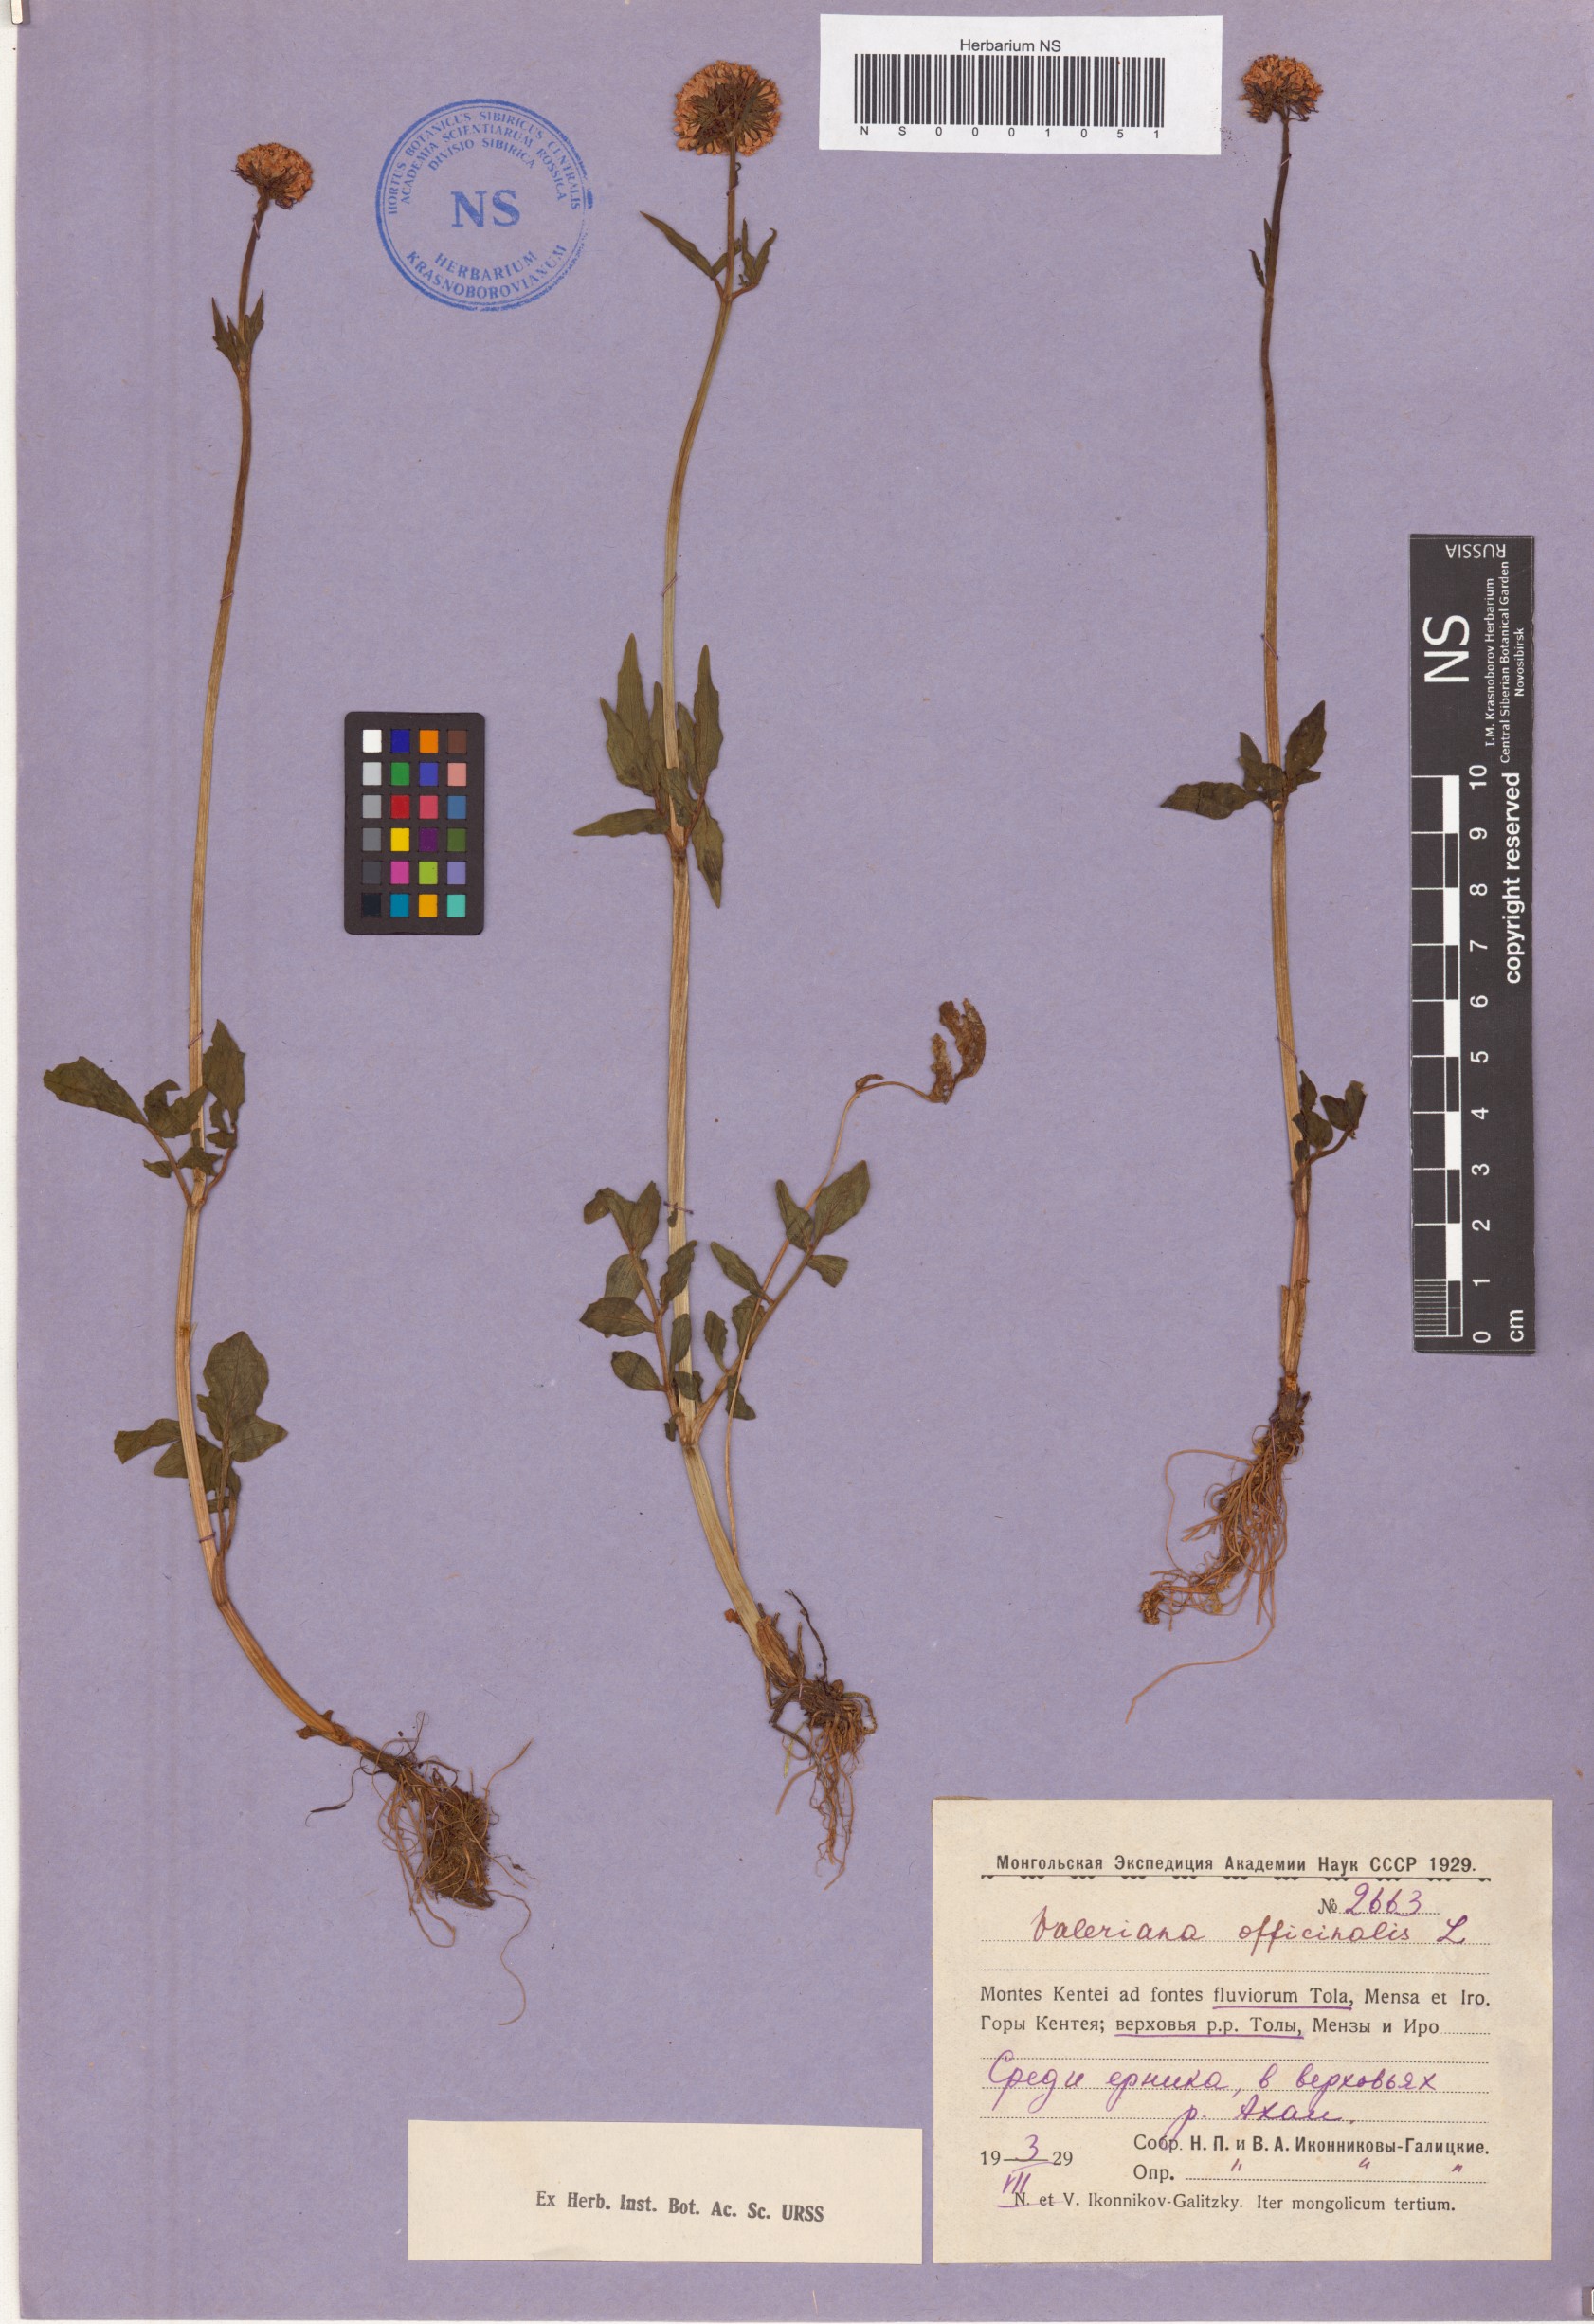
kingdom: Plantae
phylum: Tracheophyta
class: Magnoliopsida
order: Dipsacales
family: Caprifoliaceae
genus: Valeriana
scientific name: Valeriana officinalis
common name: Common valerian
